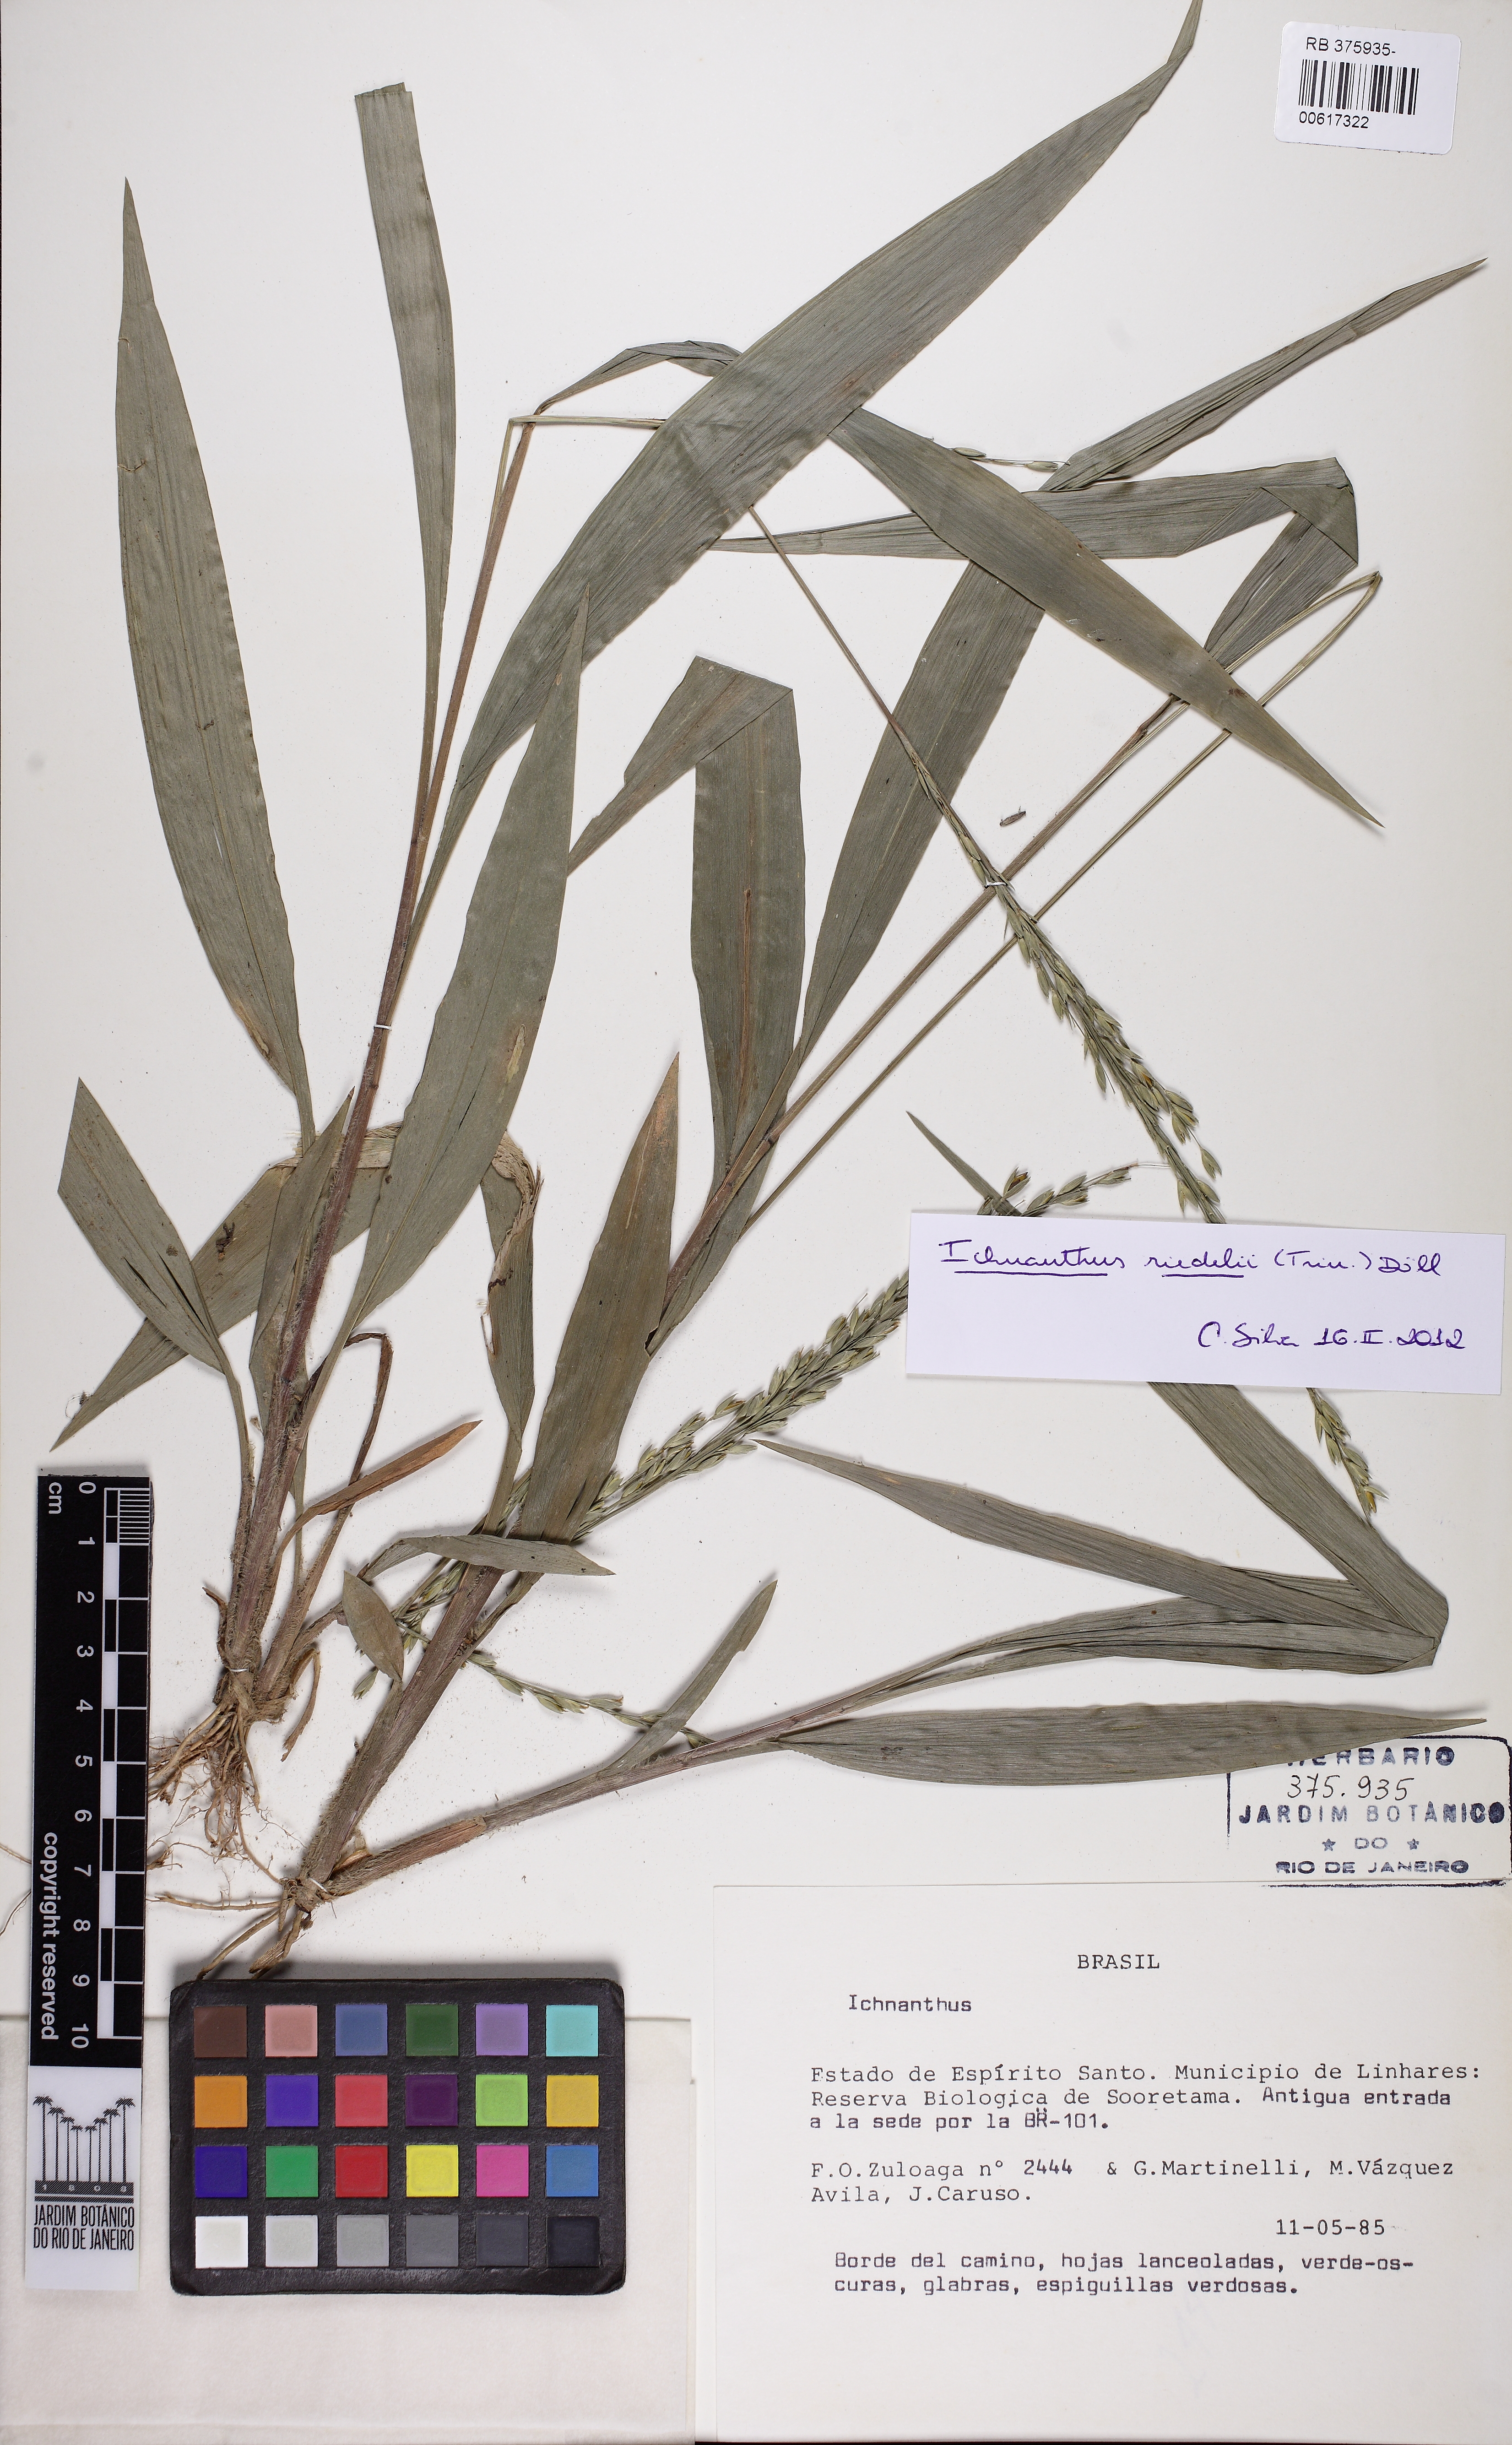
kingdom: Plantae
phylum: Tracheophyta
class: Liliopsida
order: Poales
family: Poaceae
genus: Ichnanthus
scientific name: Ichnanthus riedelii
